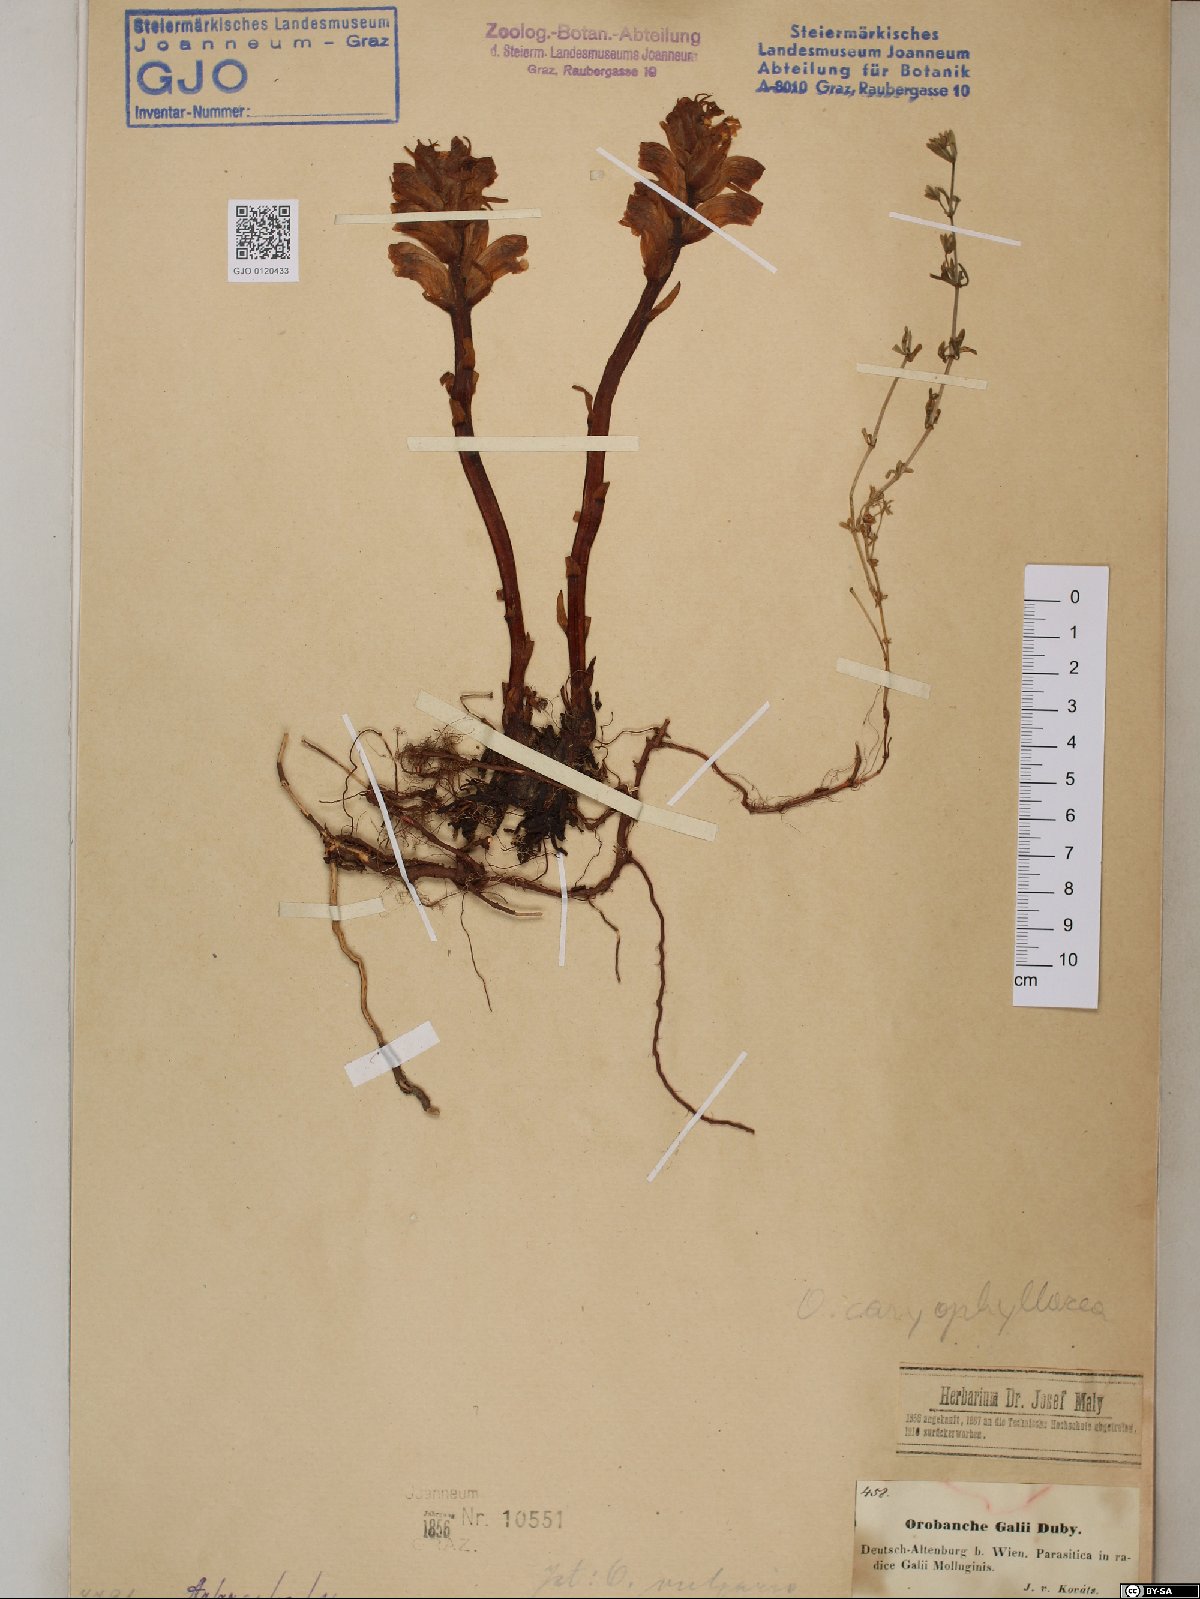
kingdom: Plantae
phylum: Tracheophyta
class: Magnoliopsida
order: Lamiales
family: Orobanchaceae
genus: Orobanche
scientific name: Orobanche caryophyllacea
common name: Bedstraw broomrape
